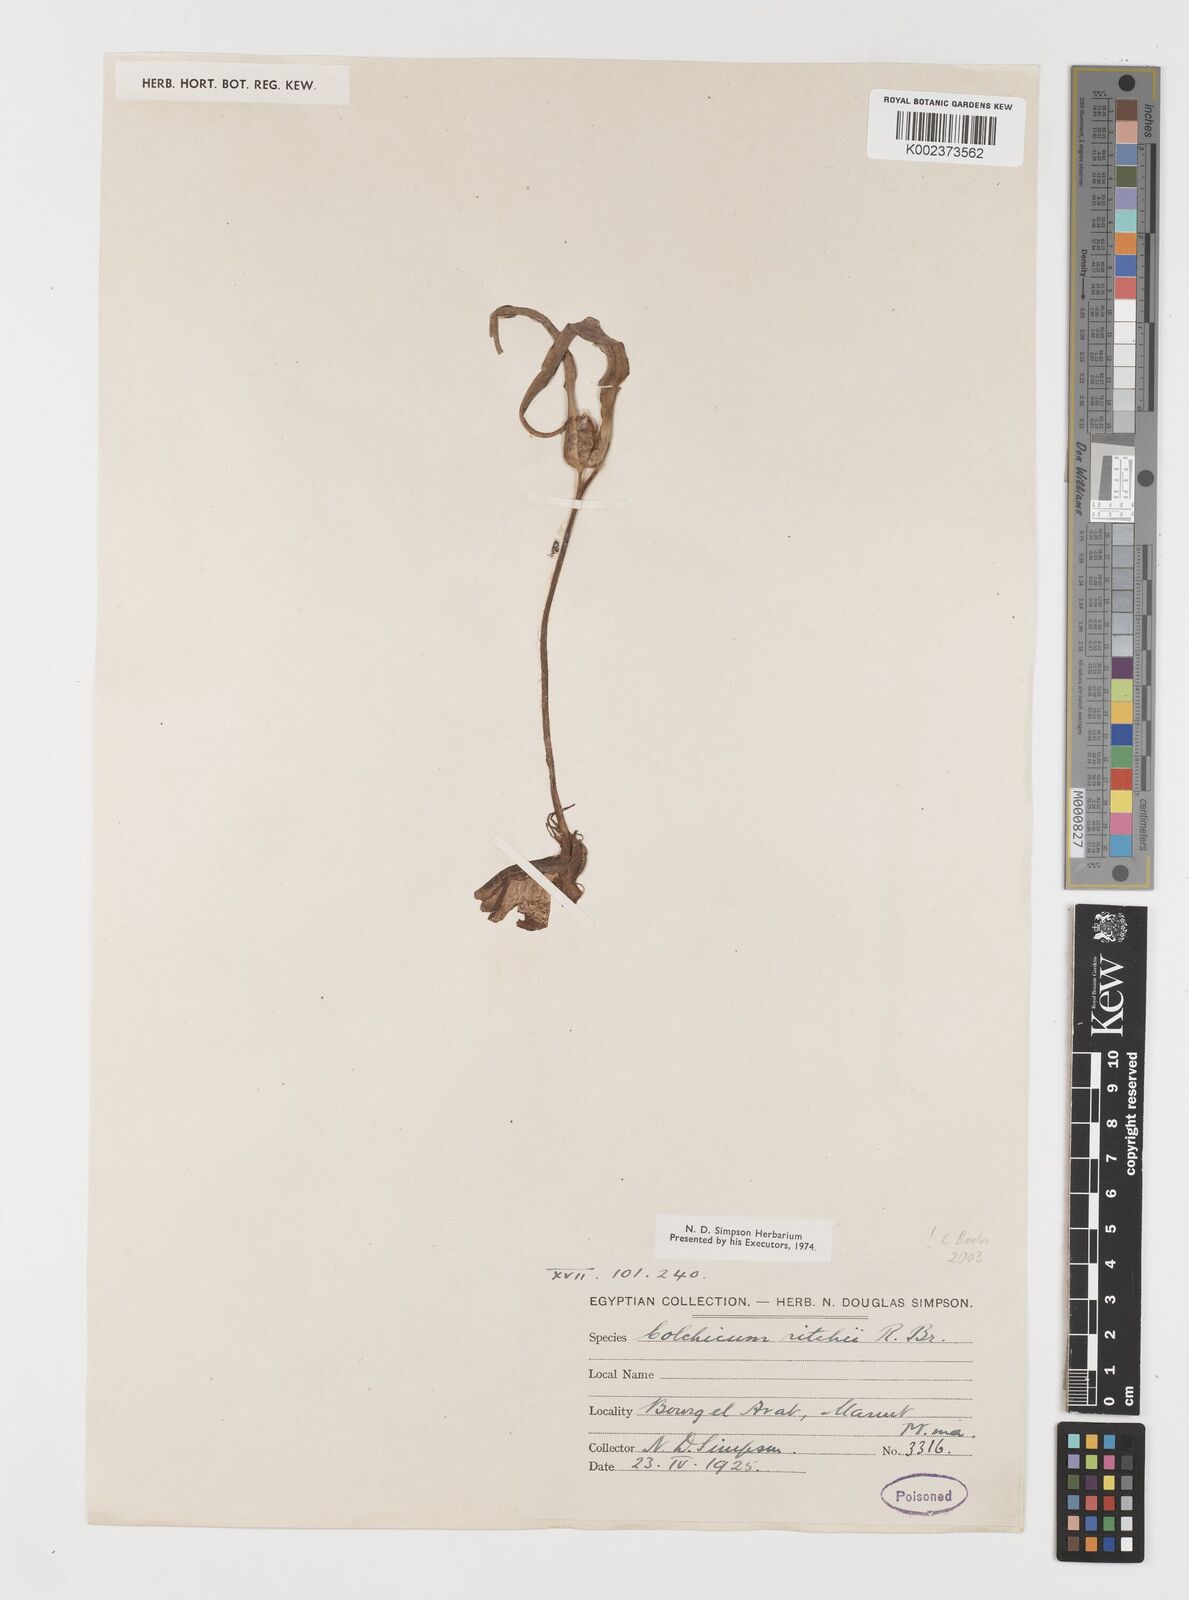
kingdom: Plantae
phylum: Tracheophyta
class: Liliopsida
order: Liliales
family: Colchicaceae
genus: Colchicum
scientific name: Colchicum ritchii
